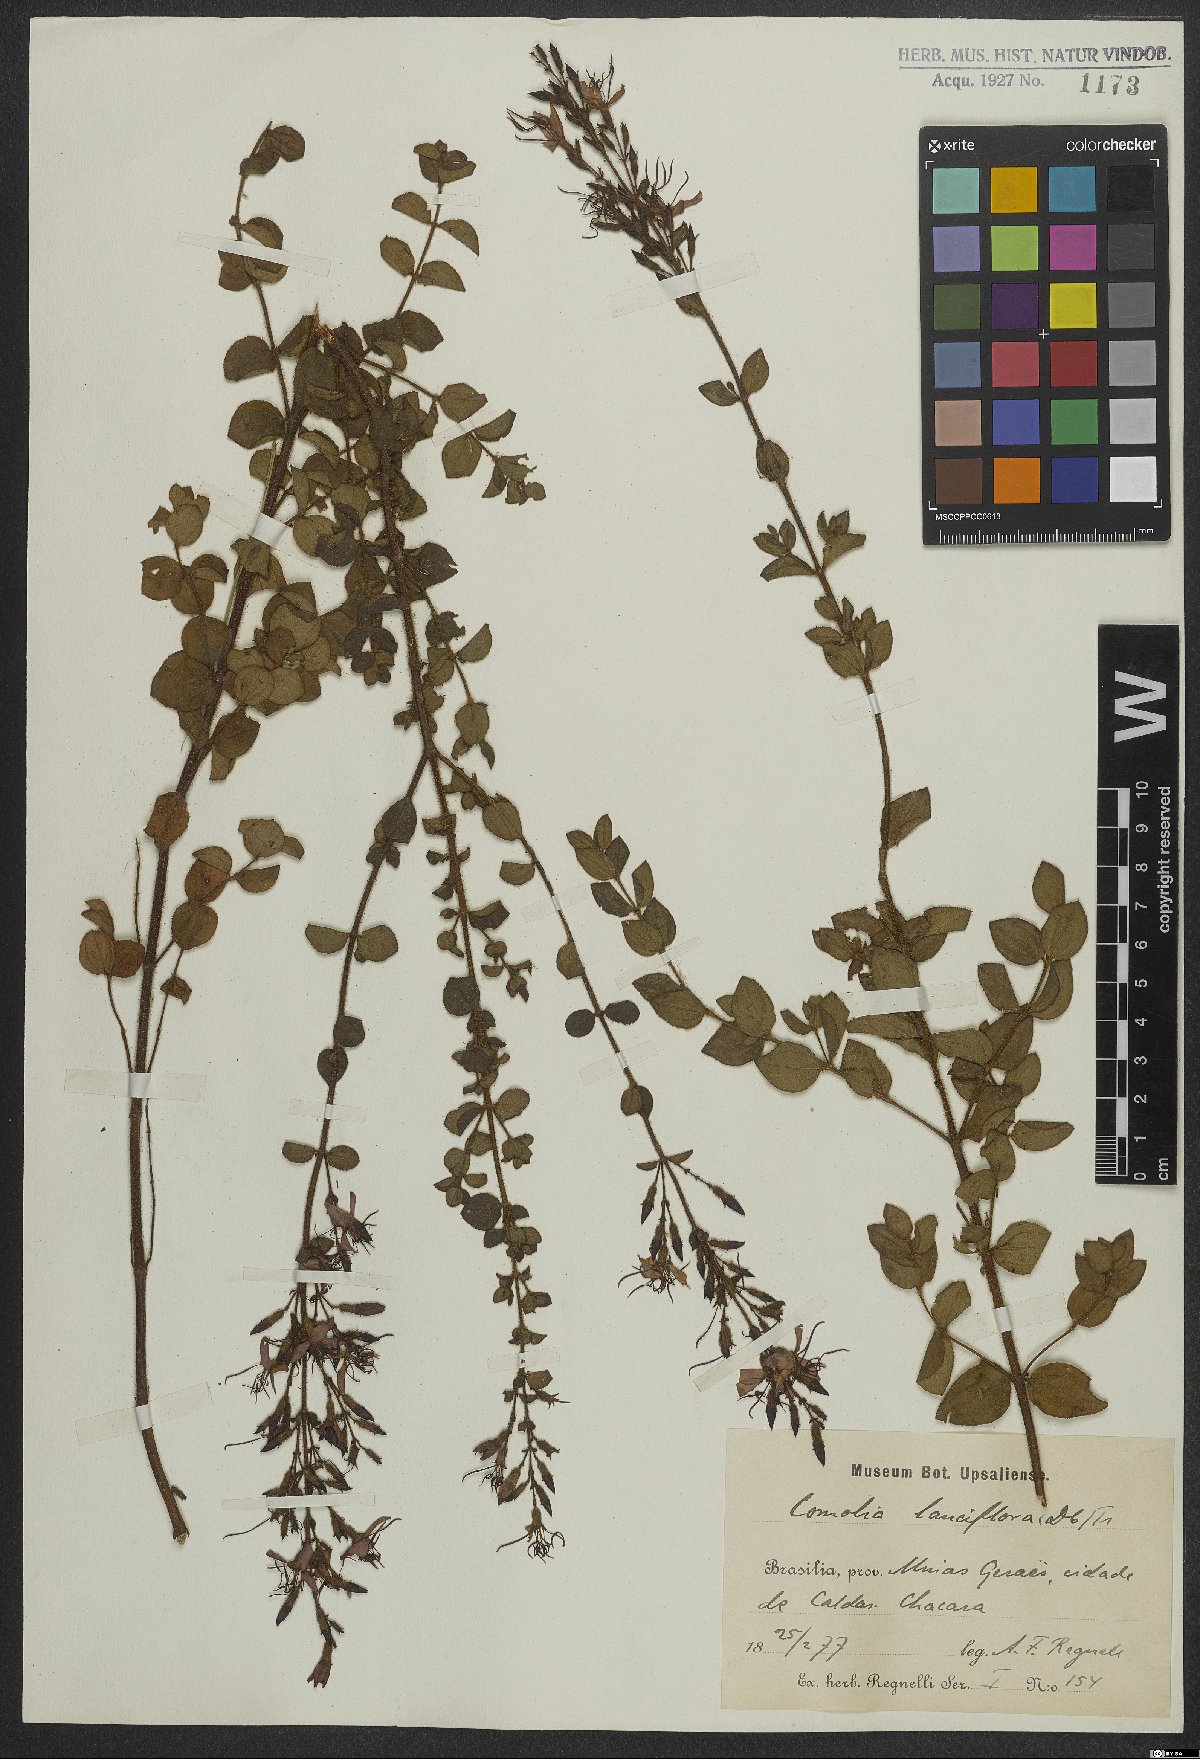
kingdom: Plantae
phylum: Tracheophyta
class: Magnoliopsida
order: Myrtales
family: Melastomataceae
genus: Fritzschia
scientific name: Fritzschia lanceiflora
